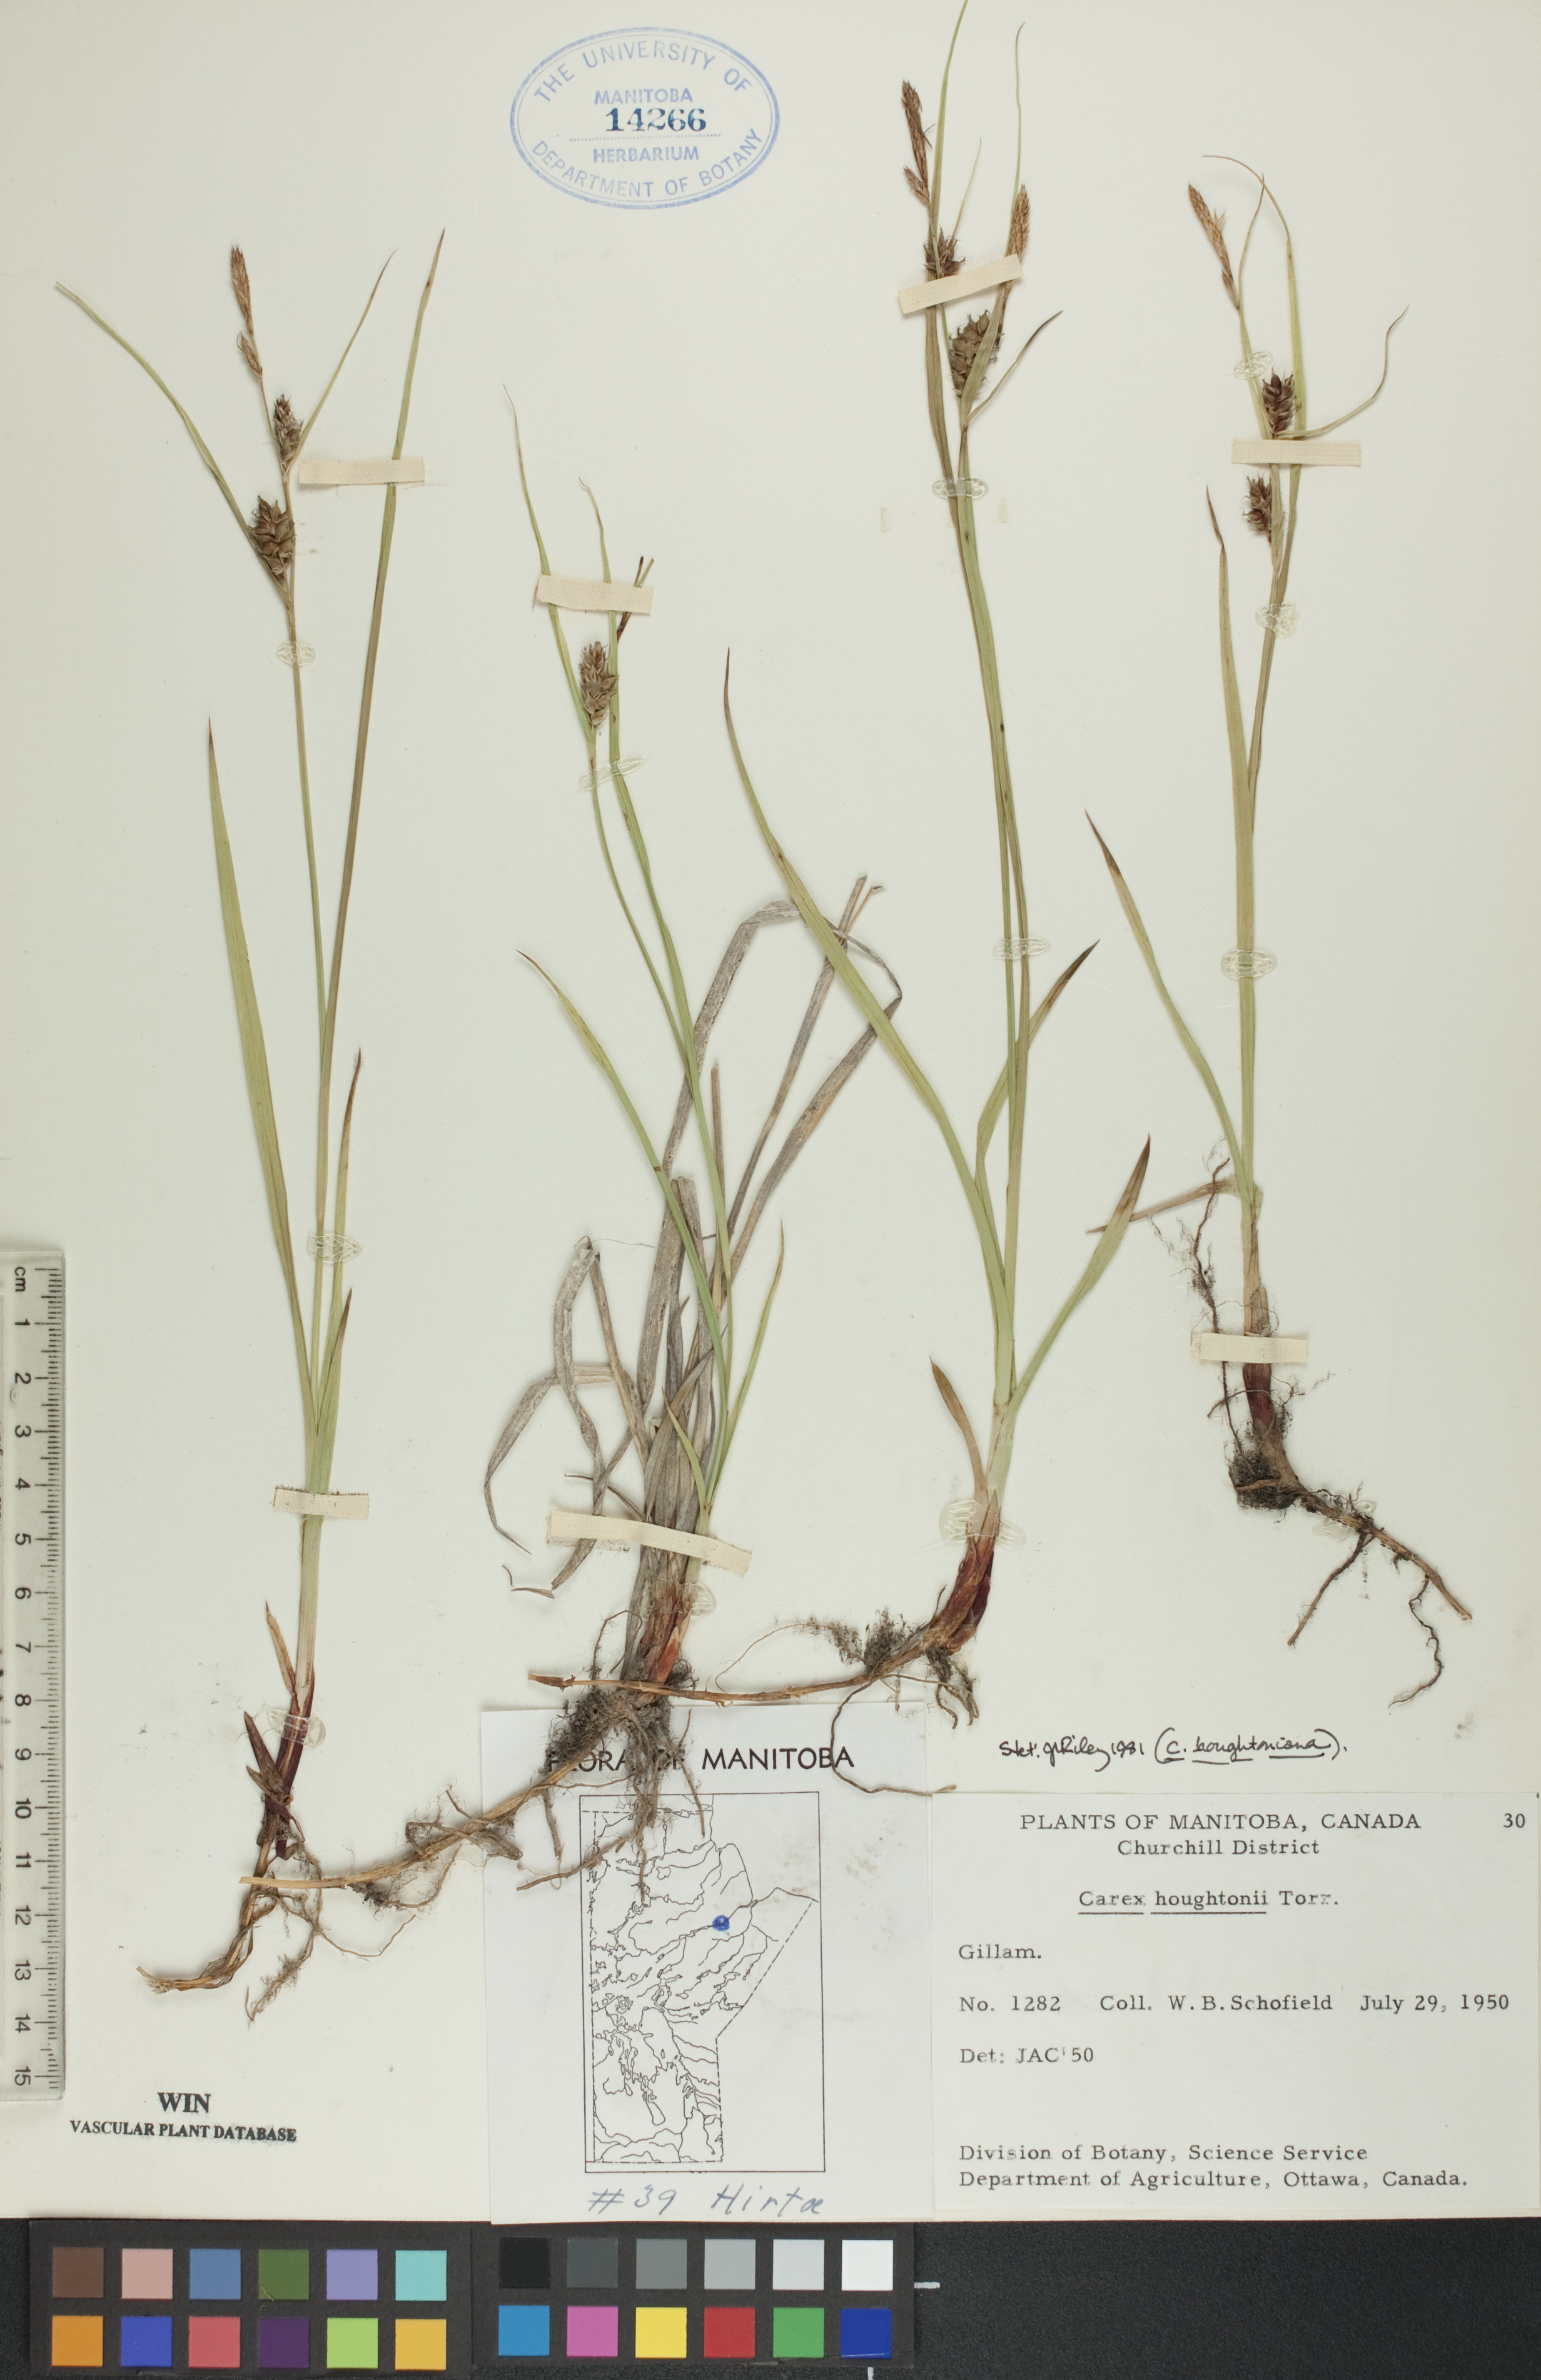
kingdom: Plantae
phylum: Tracheophyta
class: Liliopsida
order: Poales
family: Cyperaceae
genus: Carex
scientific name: Carex houghtoniana
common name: Houghton's sedge
